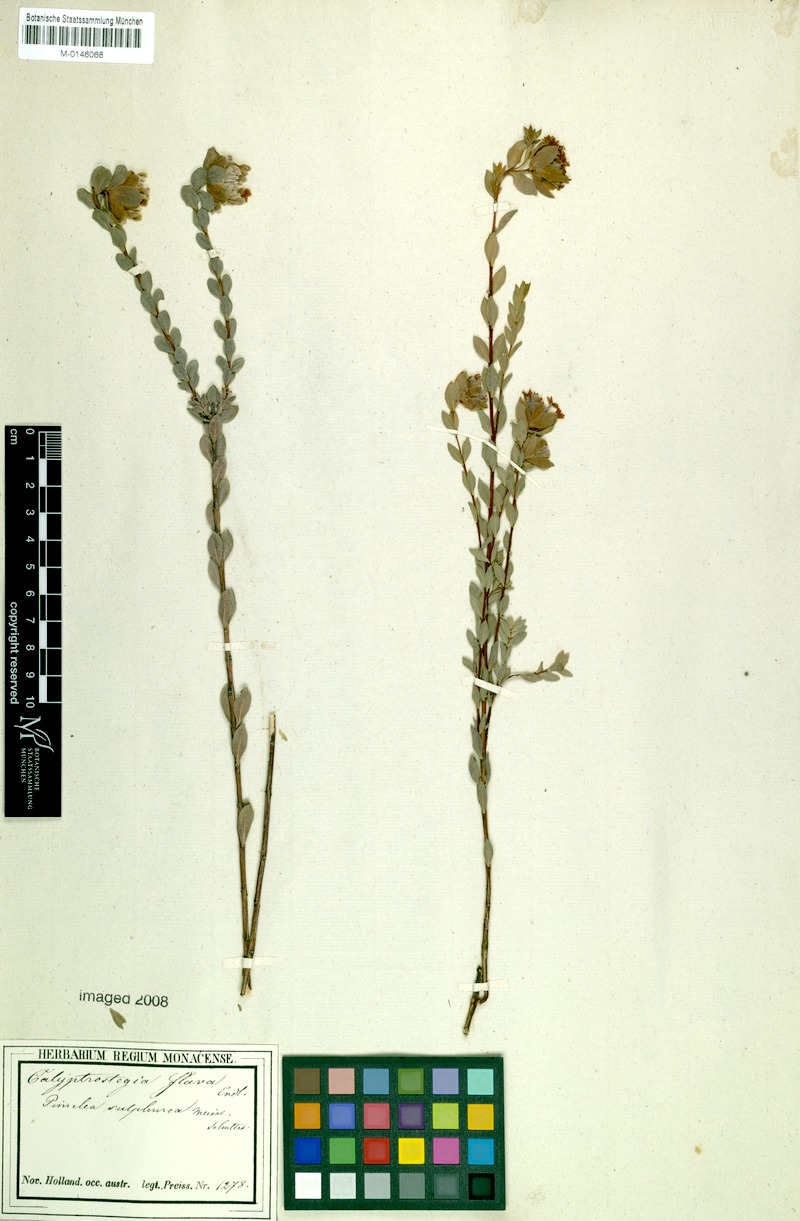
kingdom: Plantae
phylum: Tracheophyta
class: Magnoliopsida
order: Malvales
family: Thymelaeaceae
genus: Pimelea
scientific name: Pimelea sulphurea
